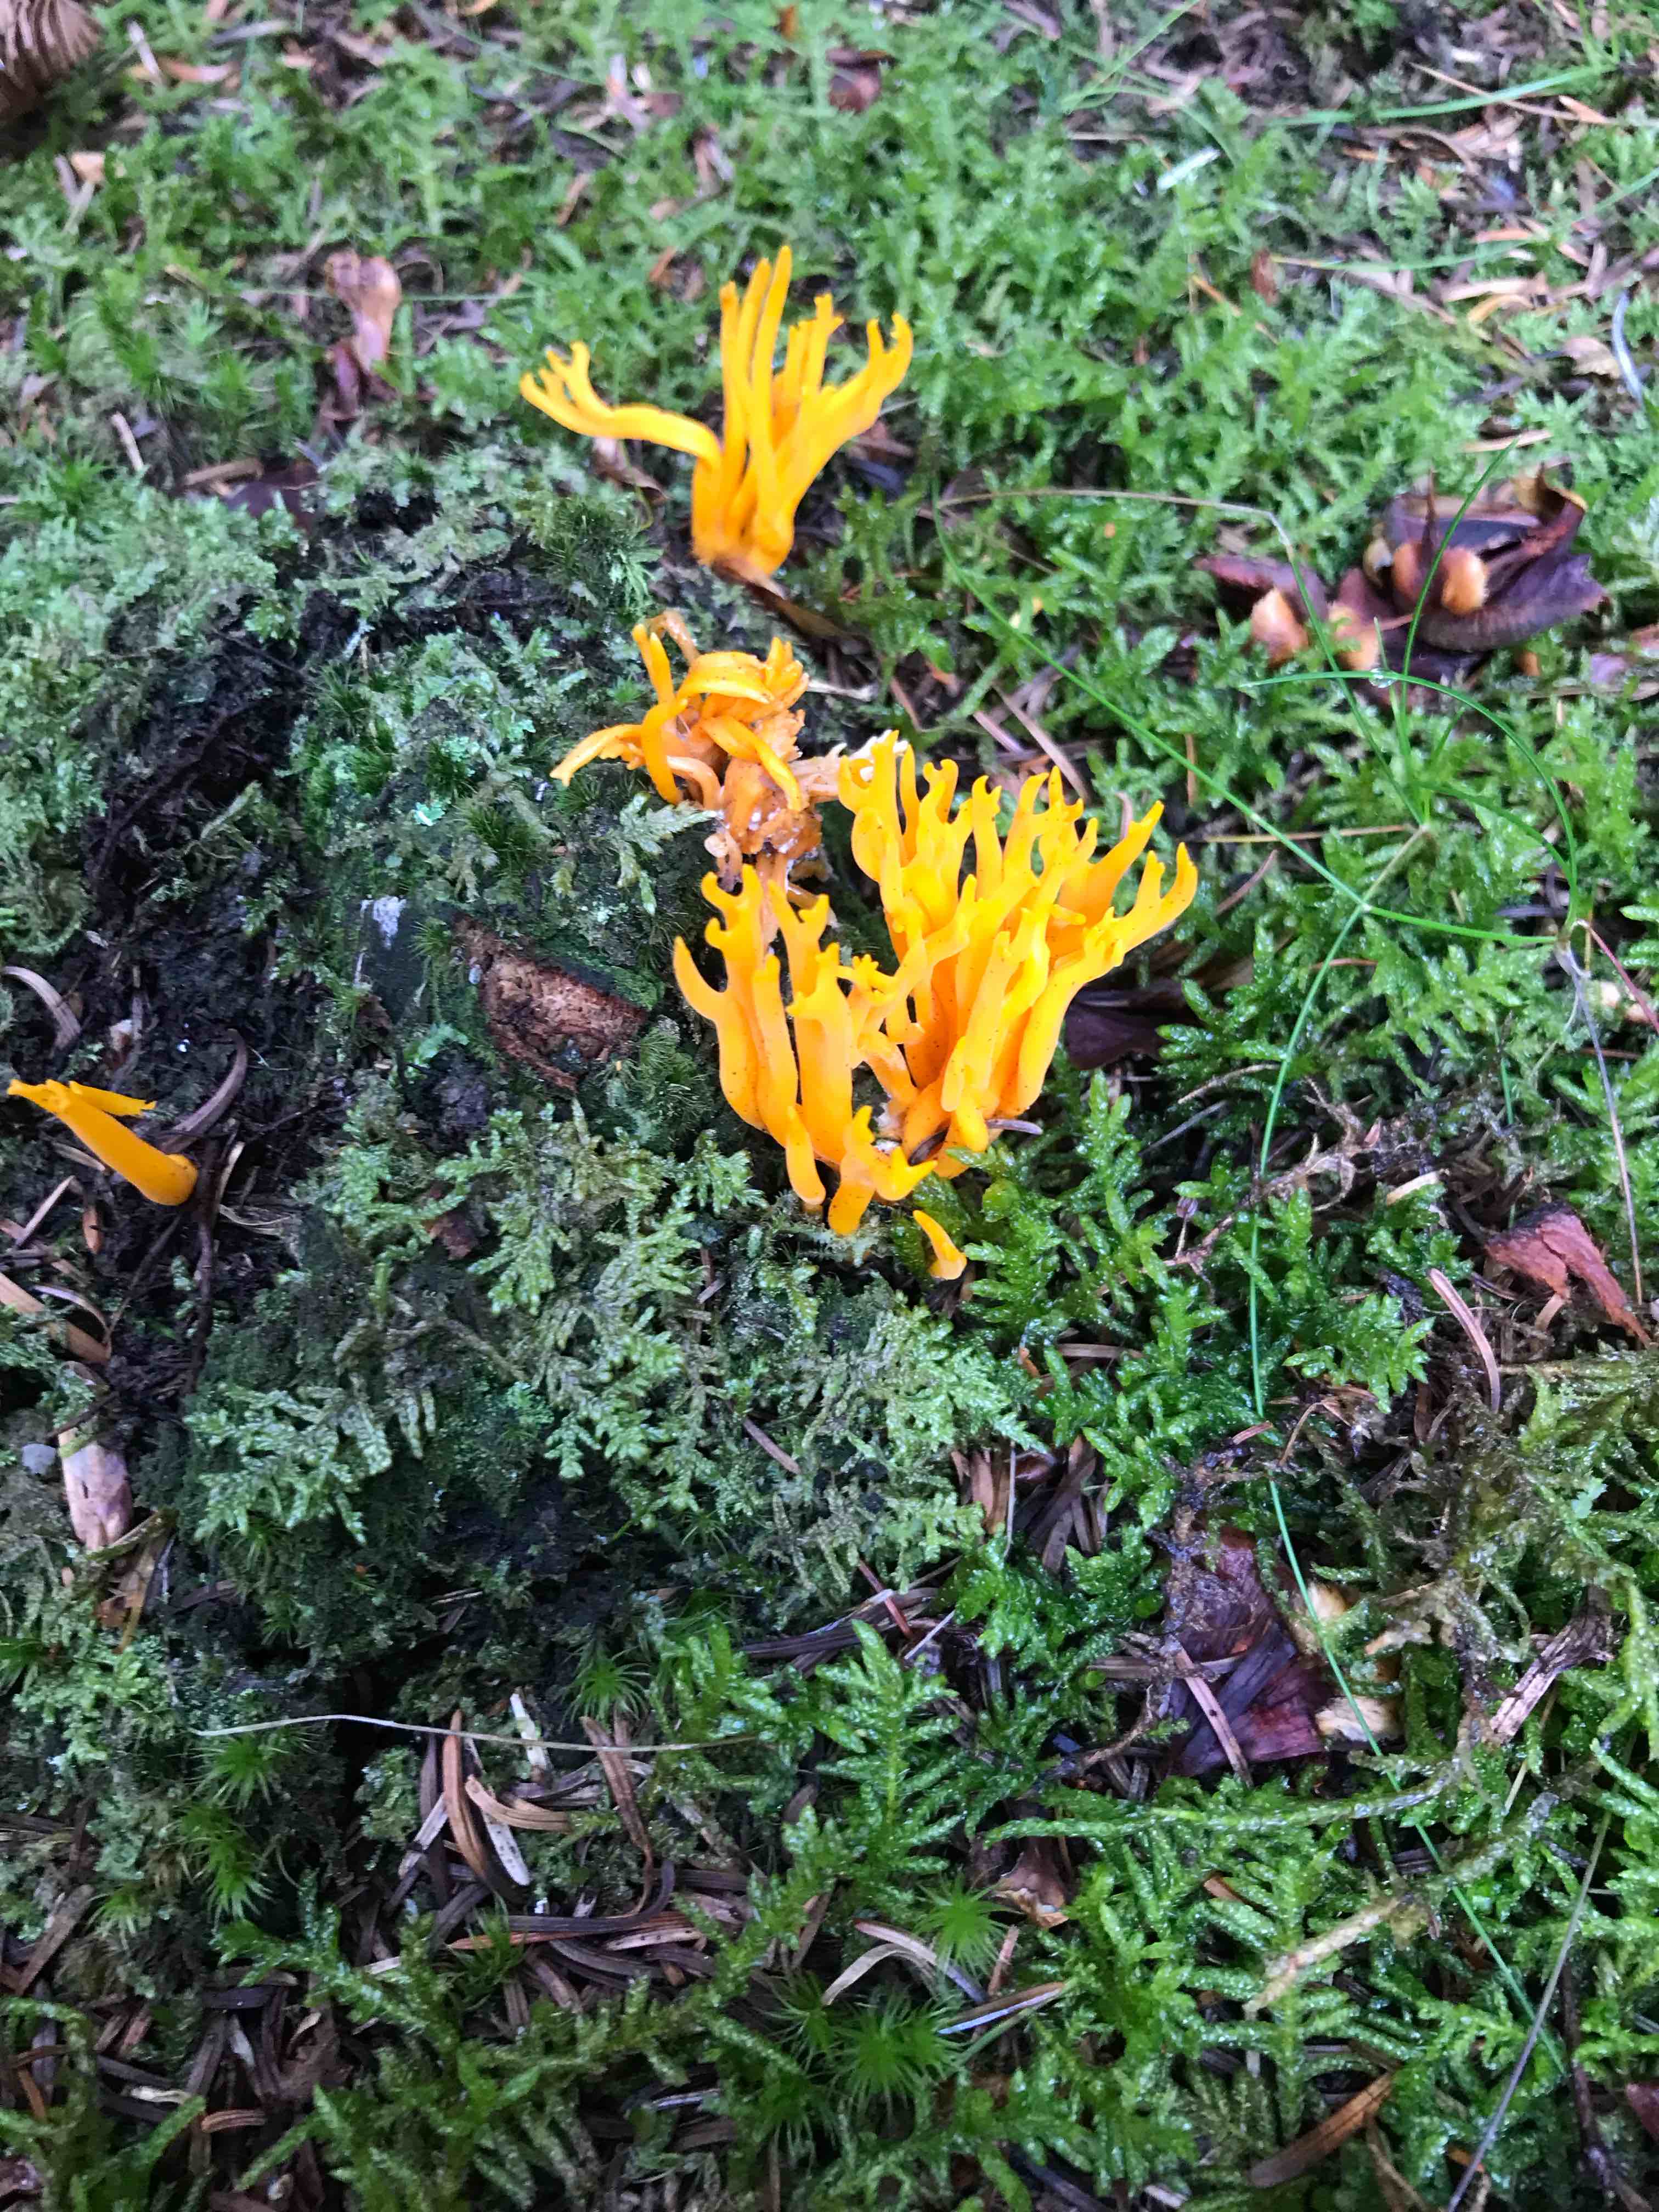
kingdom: Fungi
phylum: Basidiomycota
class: Dacrymycetes
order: Dacrymycetales
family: Dacrymycetaceae
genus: Calocera
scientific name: Calocera viscosa
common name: almindelig guldgaffel
